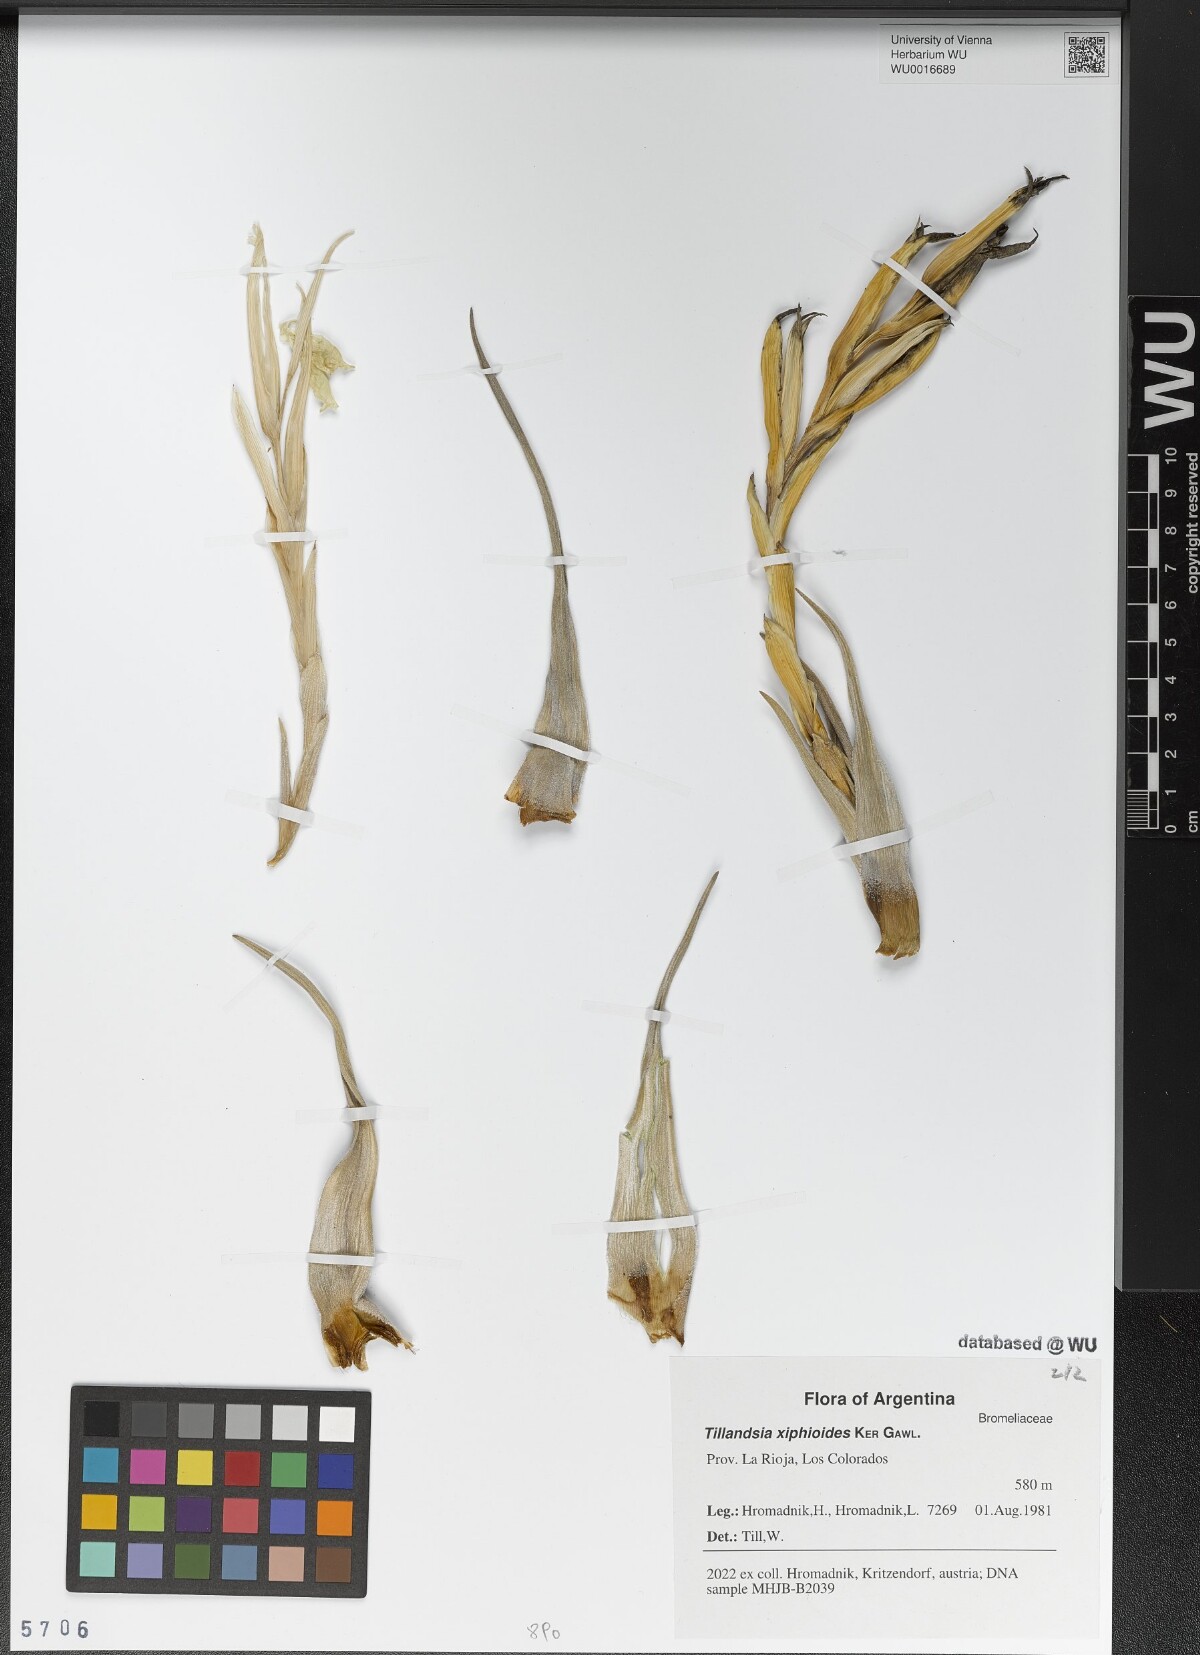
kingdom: Plantae
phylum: Tracheophyta
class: Liliopsida
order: Poales
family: Bromeliaceae
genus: Tillandsia
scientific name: Tillandsia xiphioides
